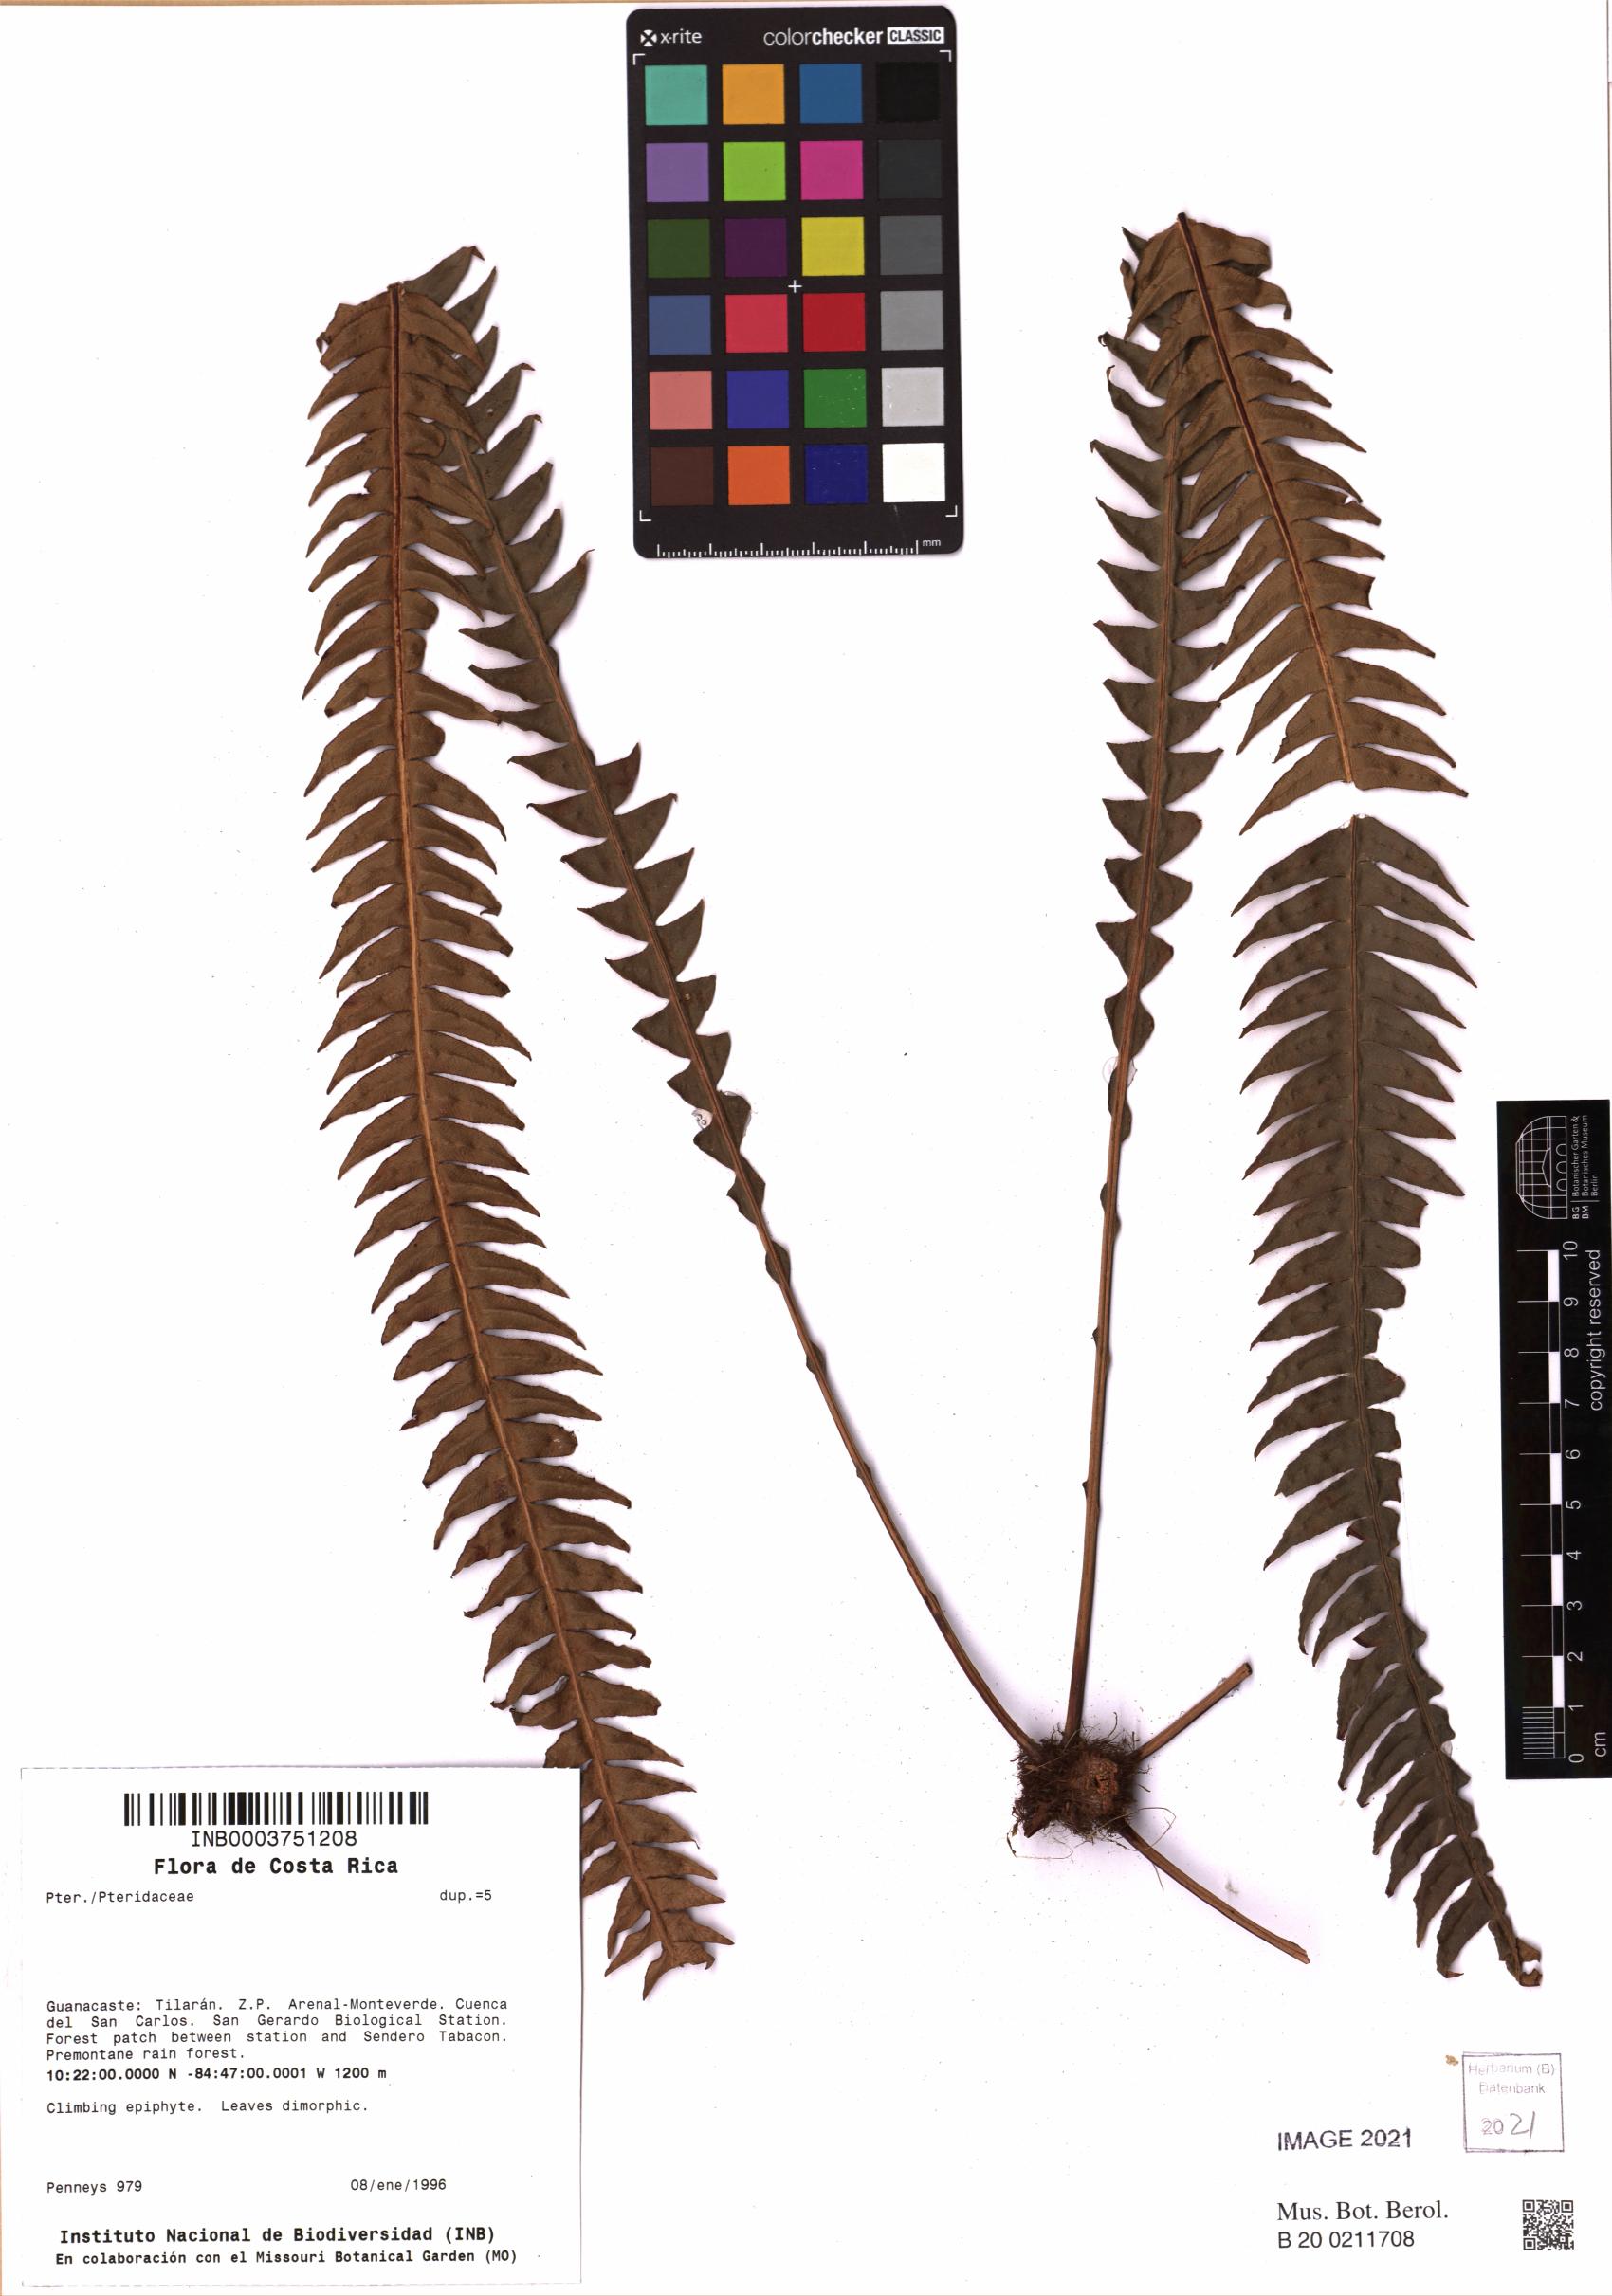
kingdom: Plantae
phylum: Tracheophyta
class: Polypodiopsida
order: Polypodiales
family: Pteridaceae
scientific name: Pteridaceae
